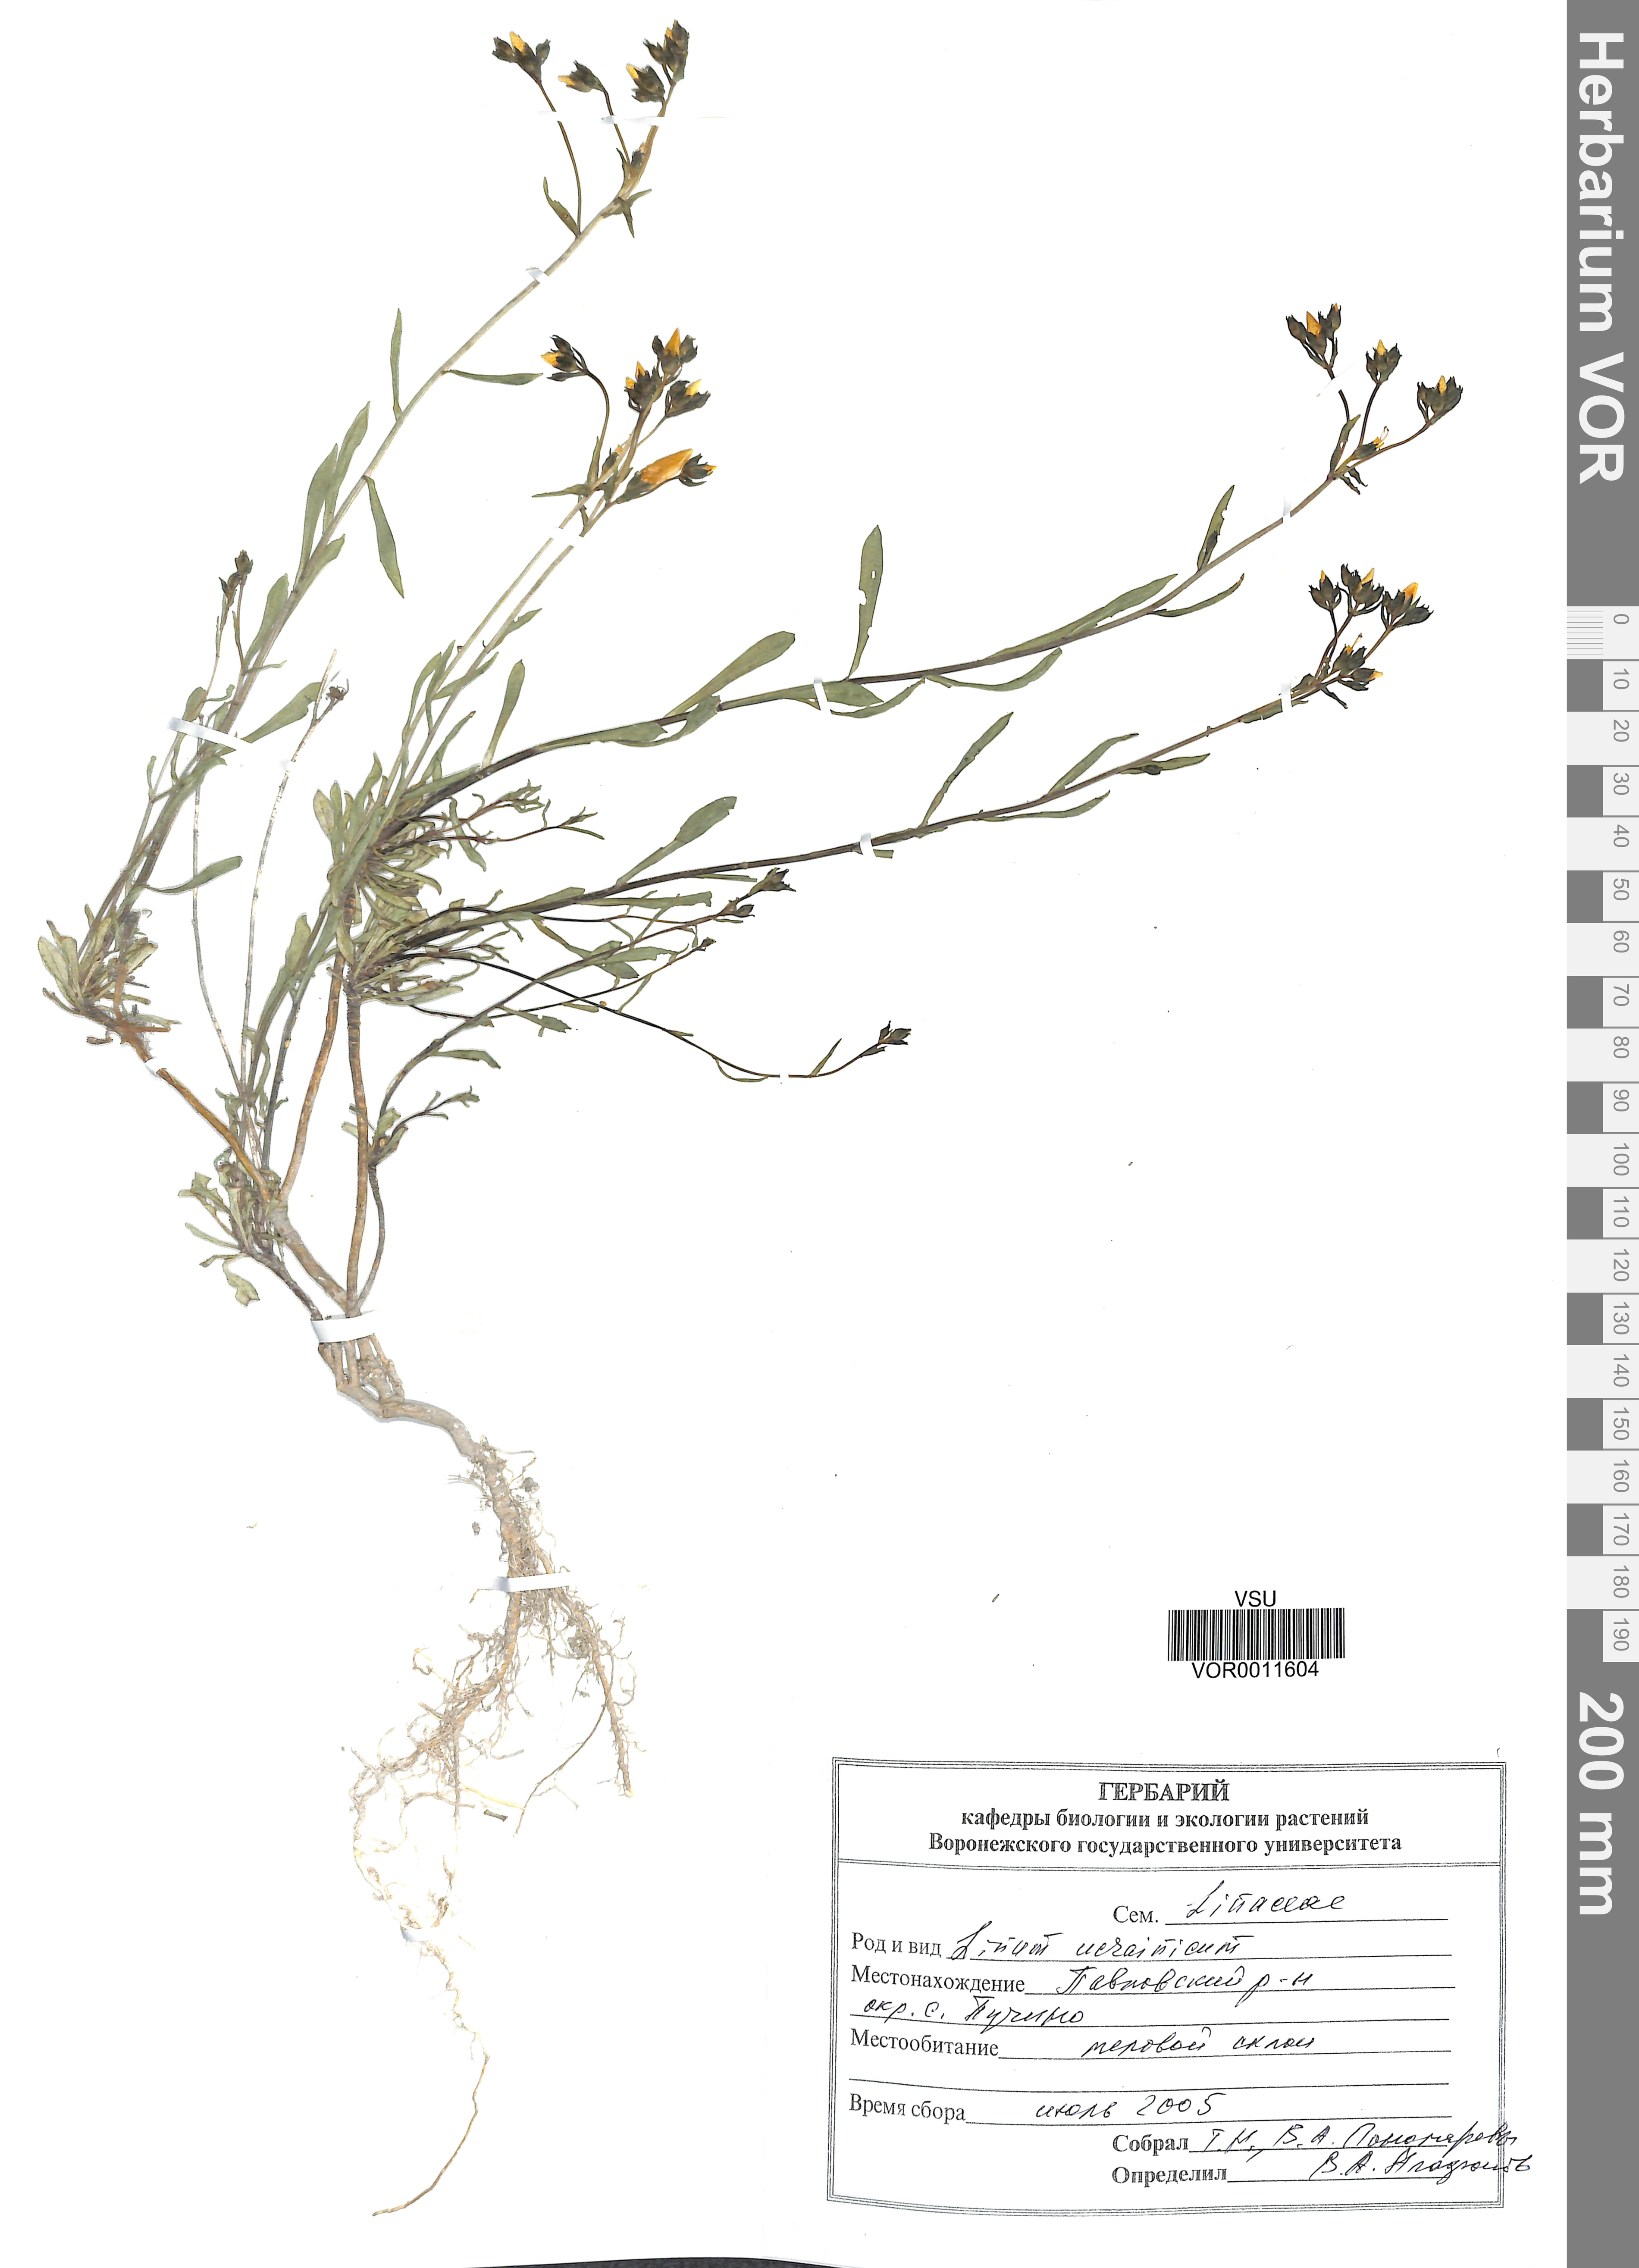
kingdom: Plantae
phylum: Tracheophyta
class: Magnoliopsida
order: Malpighiales
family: Linaceae
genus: Linum
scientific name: Linum ucranicum
